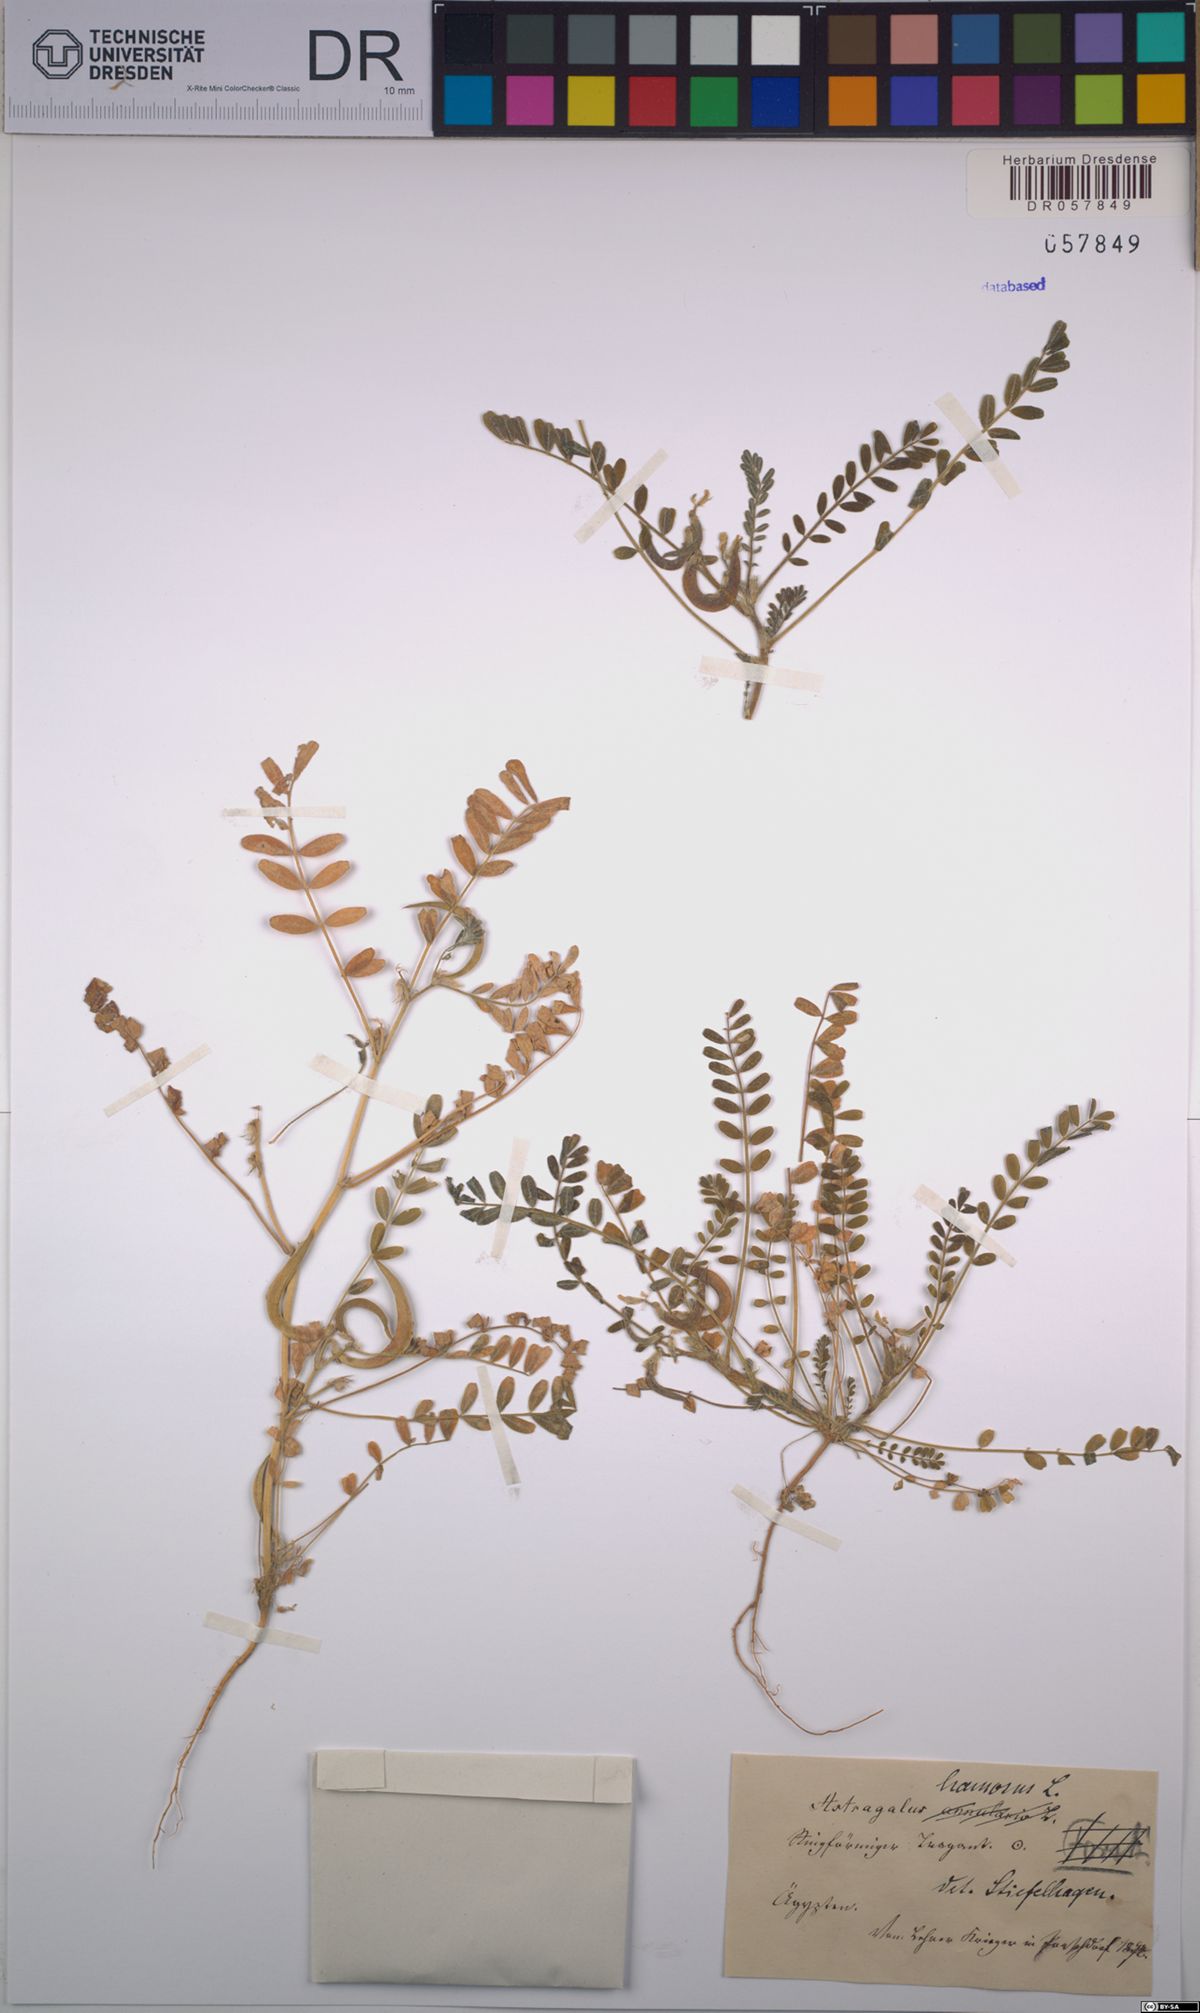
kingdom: Plantae
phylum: Tracheophyta
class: Magnoliopsida
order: Fabales
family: Fabaceae
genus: Astragalus
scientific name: Astragalus hamosus
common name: European milkvetch
